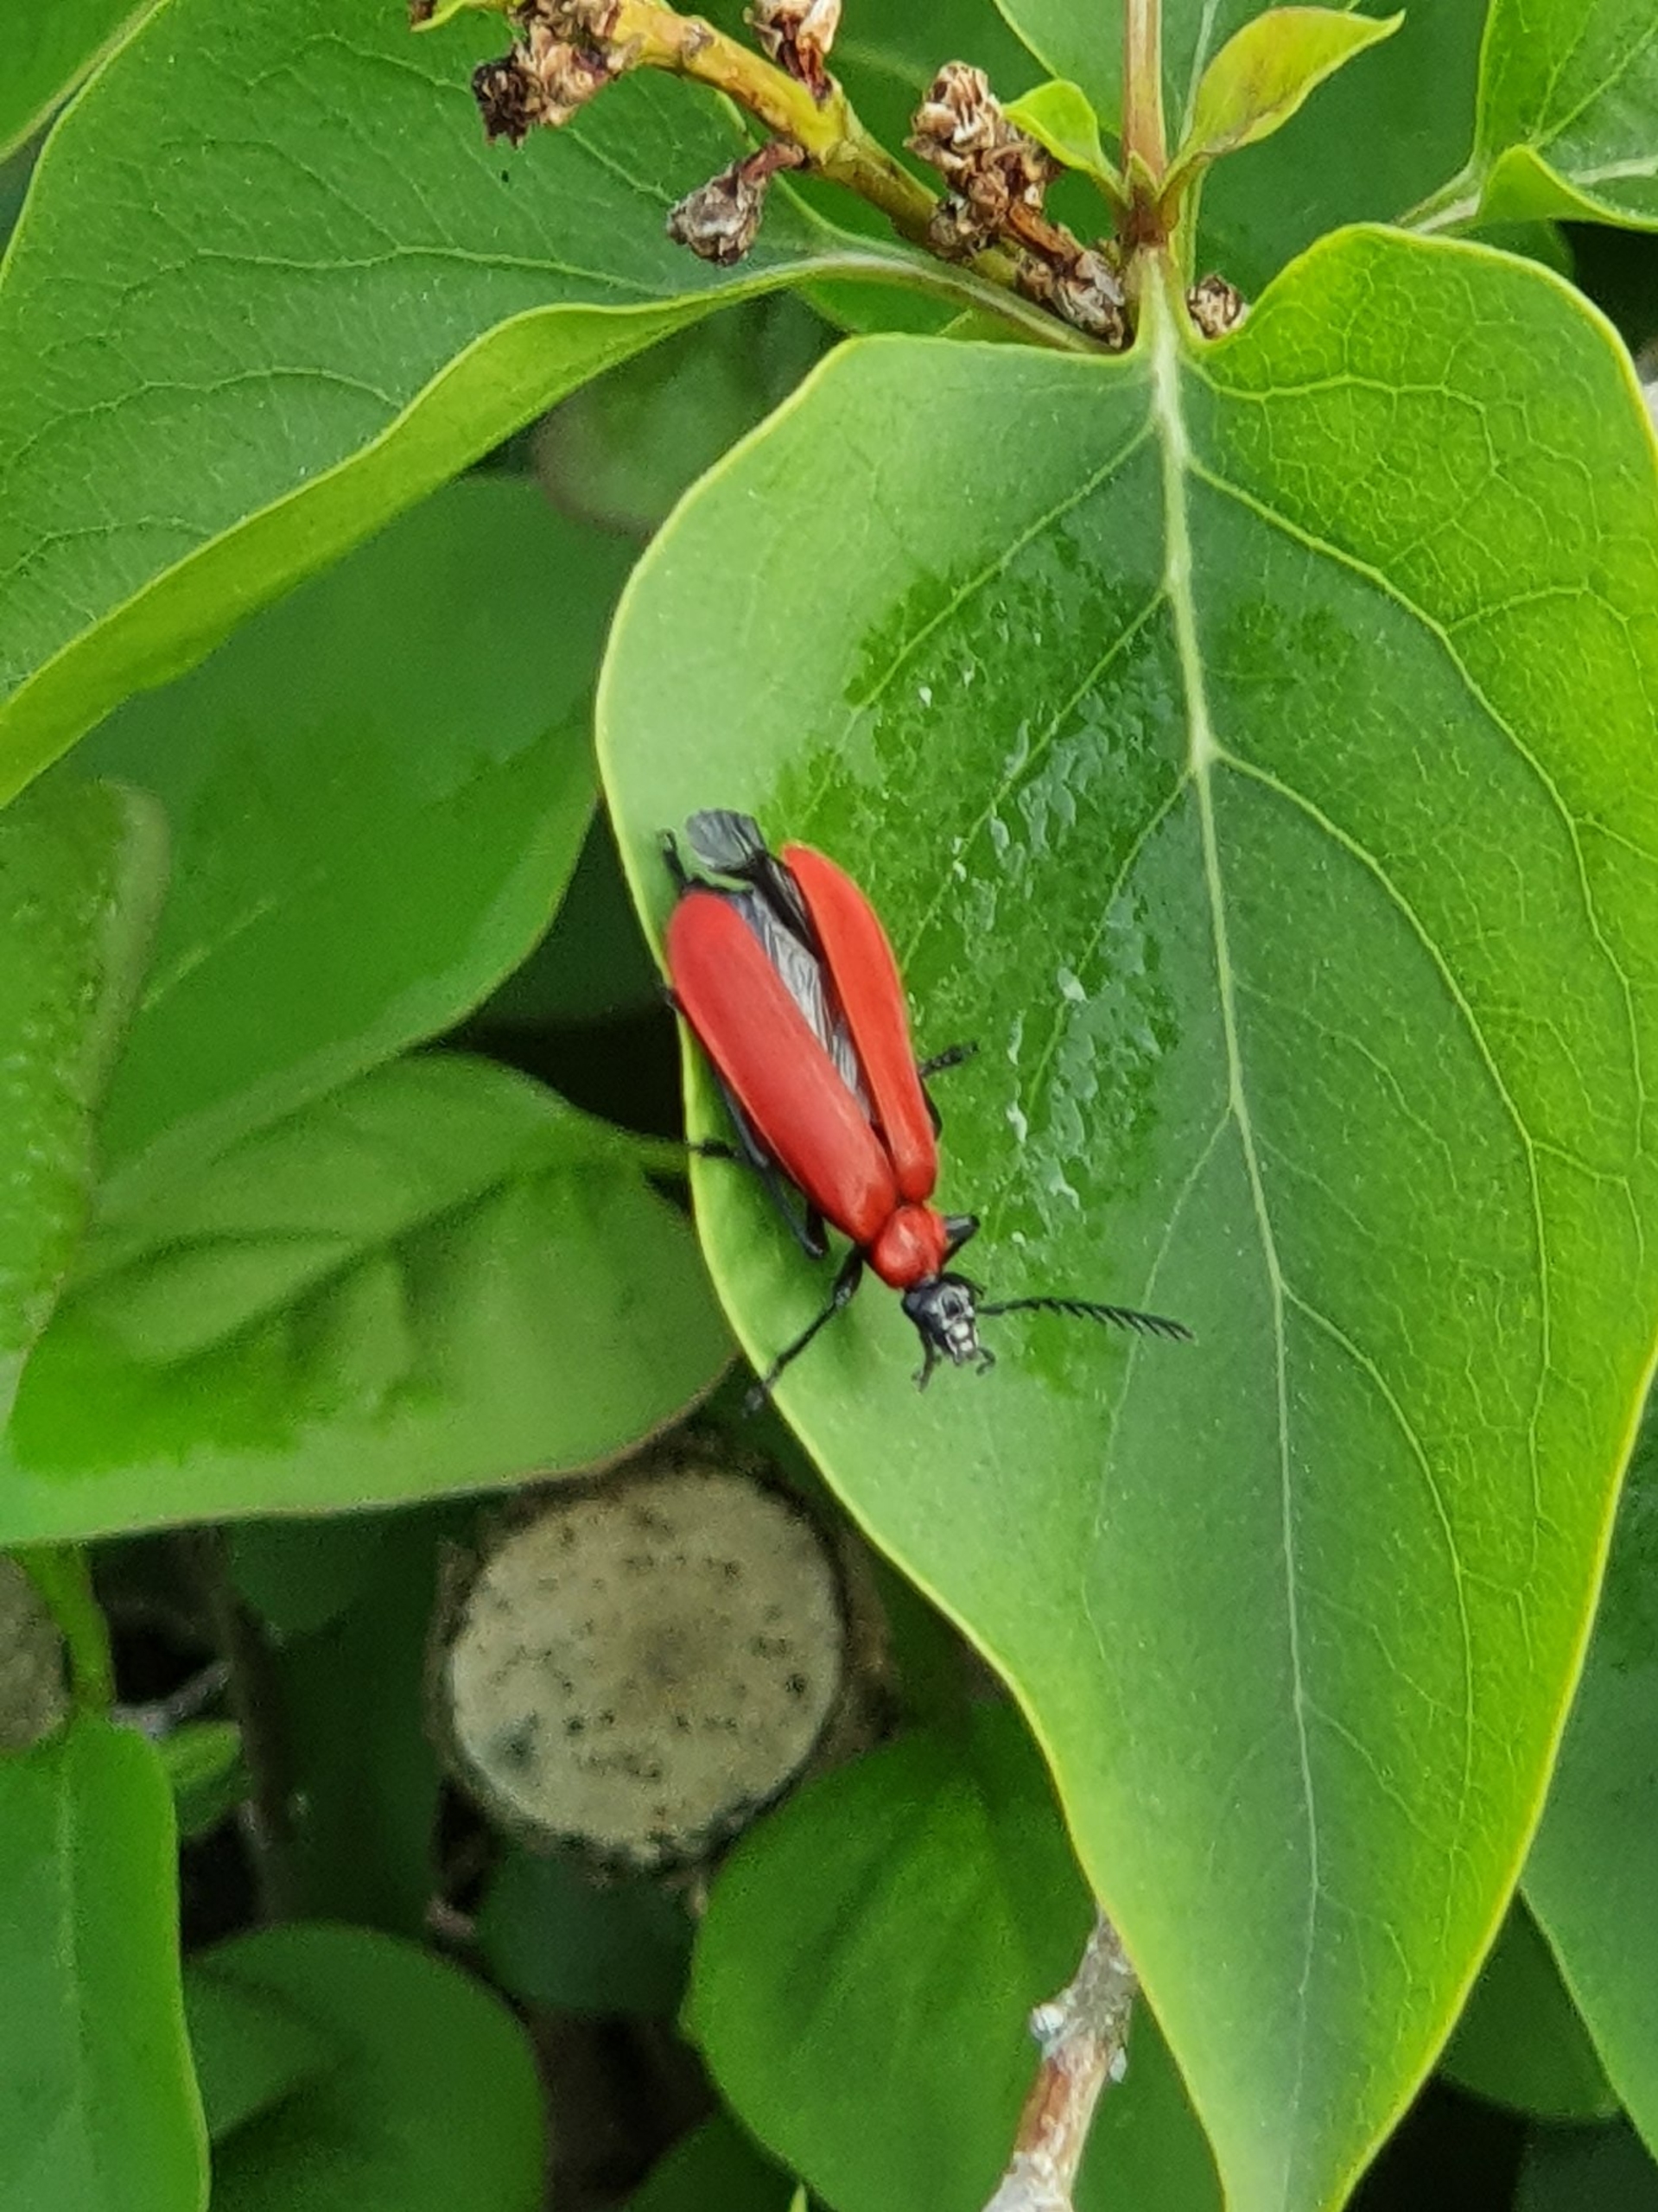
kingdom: Animalia
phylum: Arthropoda
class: Insecta
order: Coleoptera
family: Pyrochroidae
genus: Pyrochroa
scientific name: Pyrochroa coccinea
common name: Sorthovedet kardinalbille
